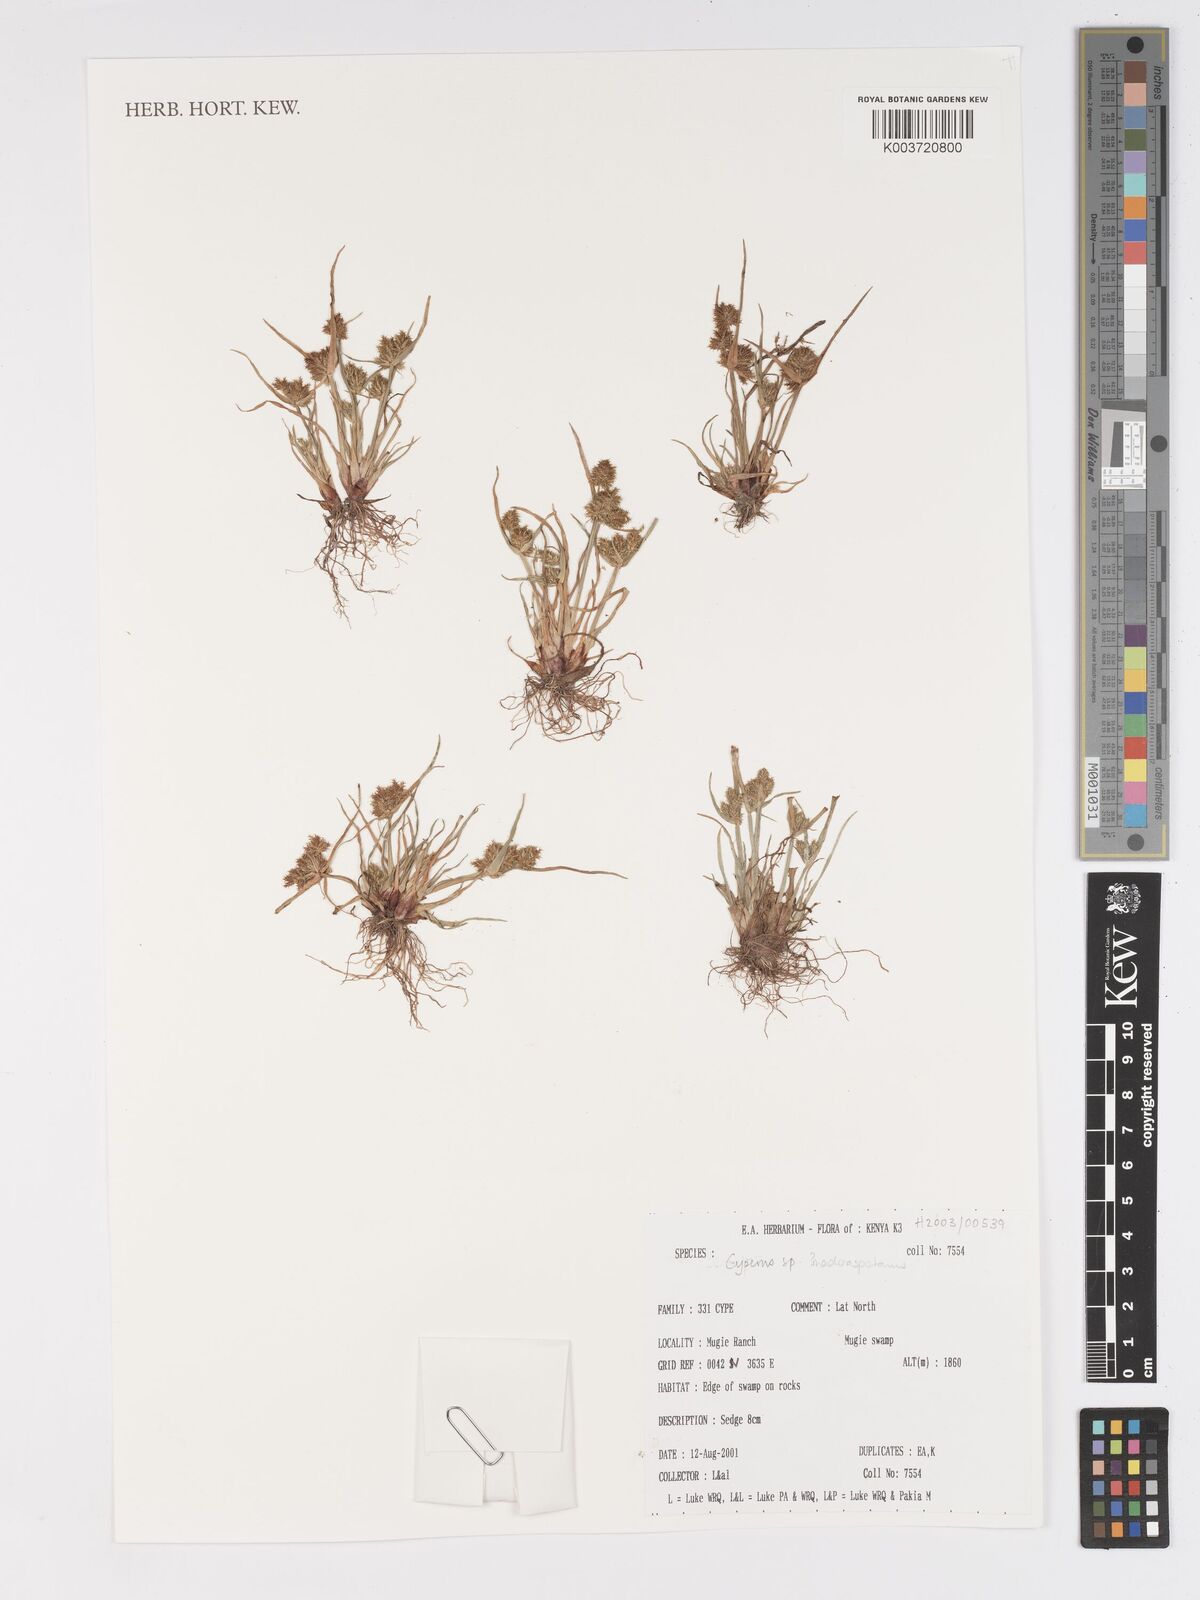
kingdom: Plantae
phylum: Tracheophyta
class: Liliopsida
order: Poales
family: Cyperaceae
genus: Cyperus
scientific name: Cyperus maderaspatanus
